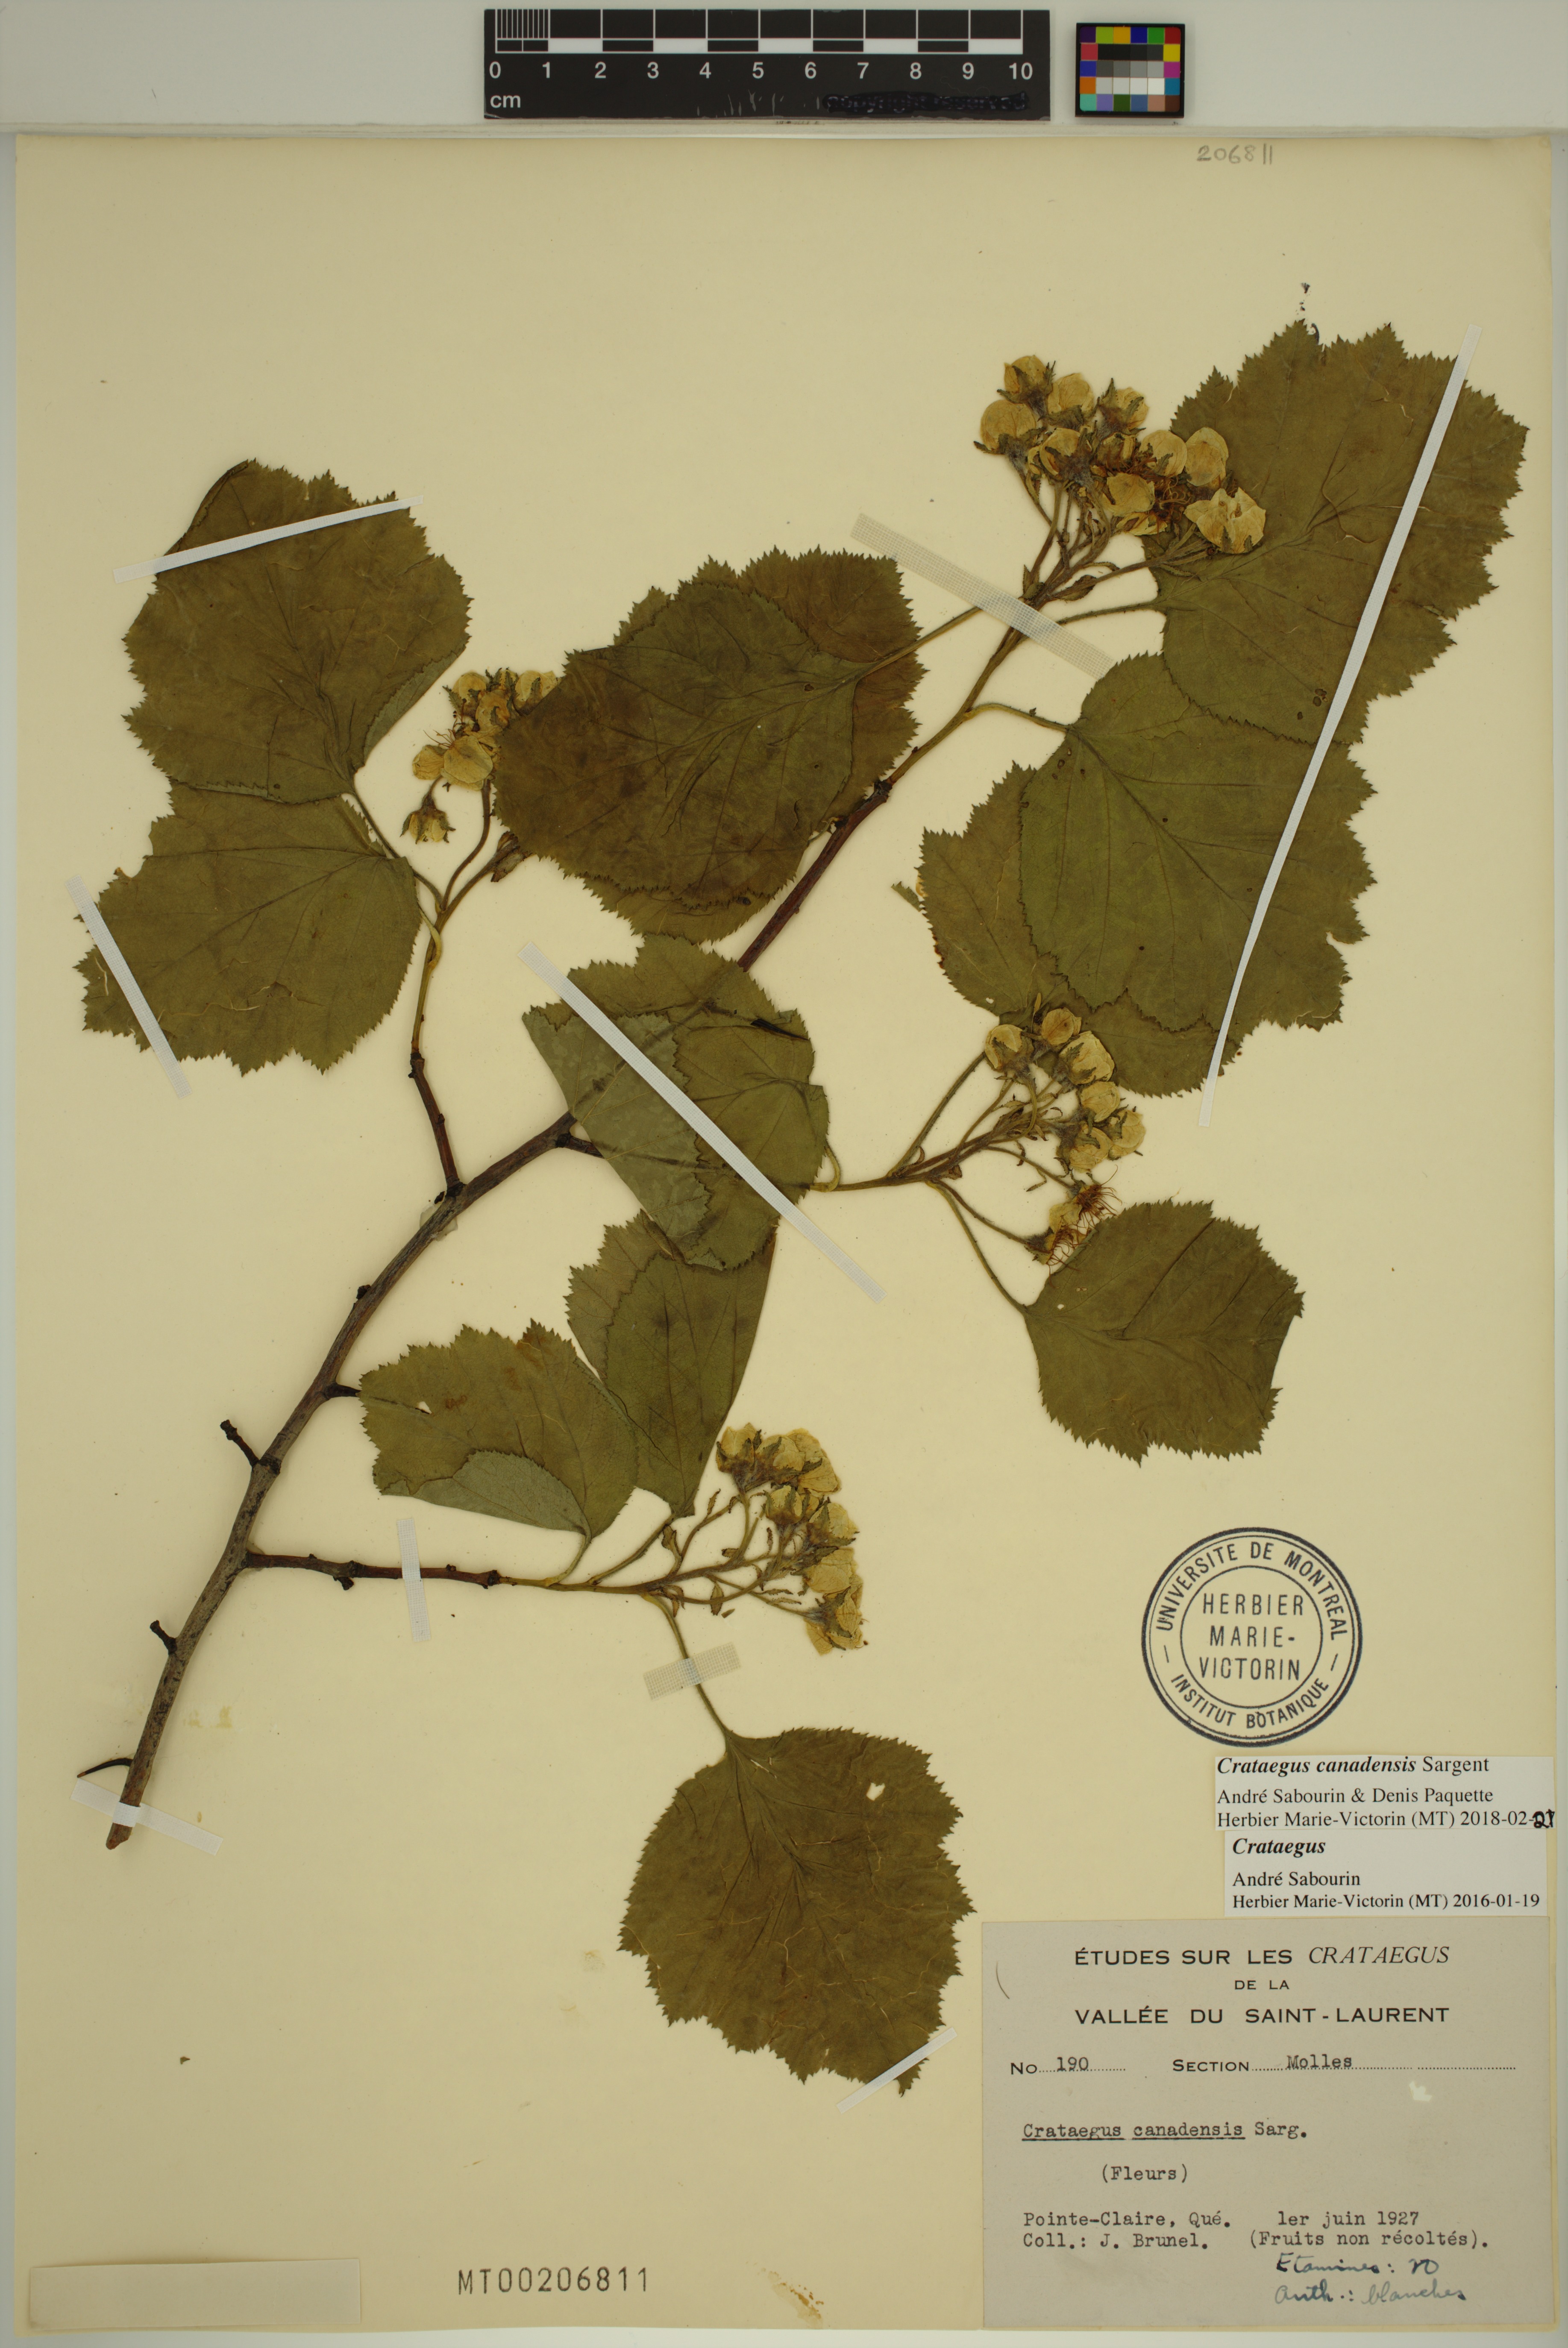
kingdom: Plantae
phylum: Tracheophyta
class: Magnoliopsida
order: Rosales
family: Rosaceae
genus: Crataegus
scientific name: Crataegus submollis
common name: Hairy cockspurthorn
